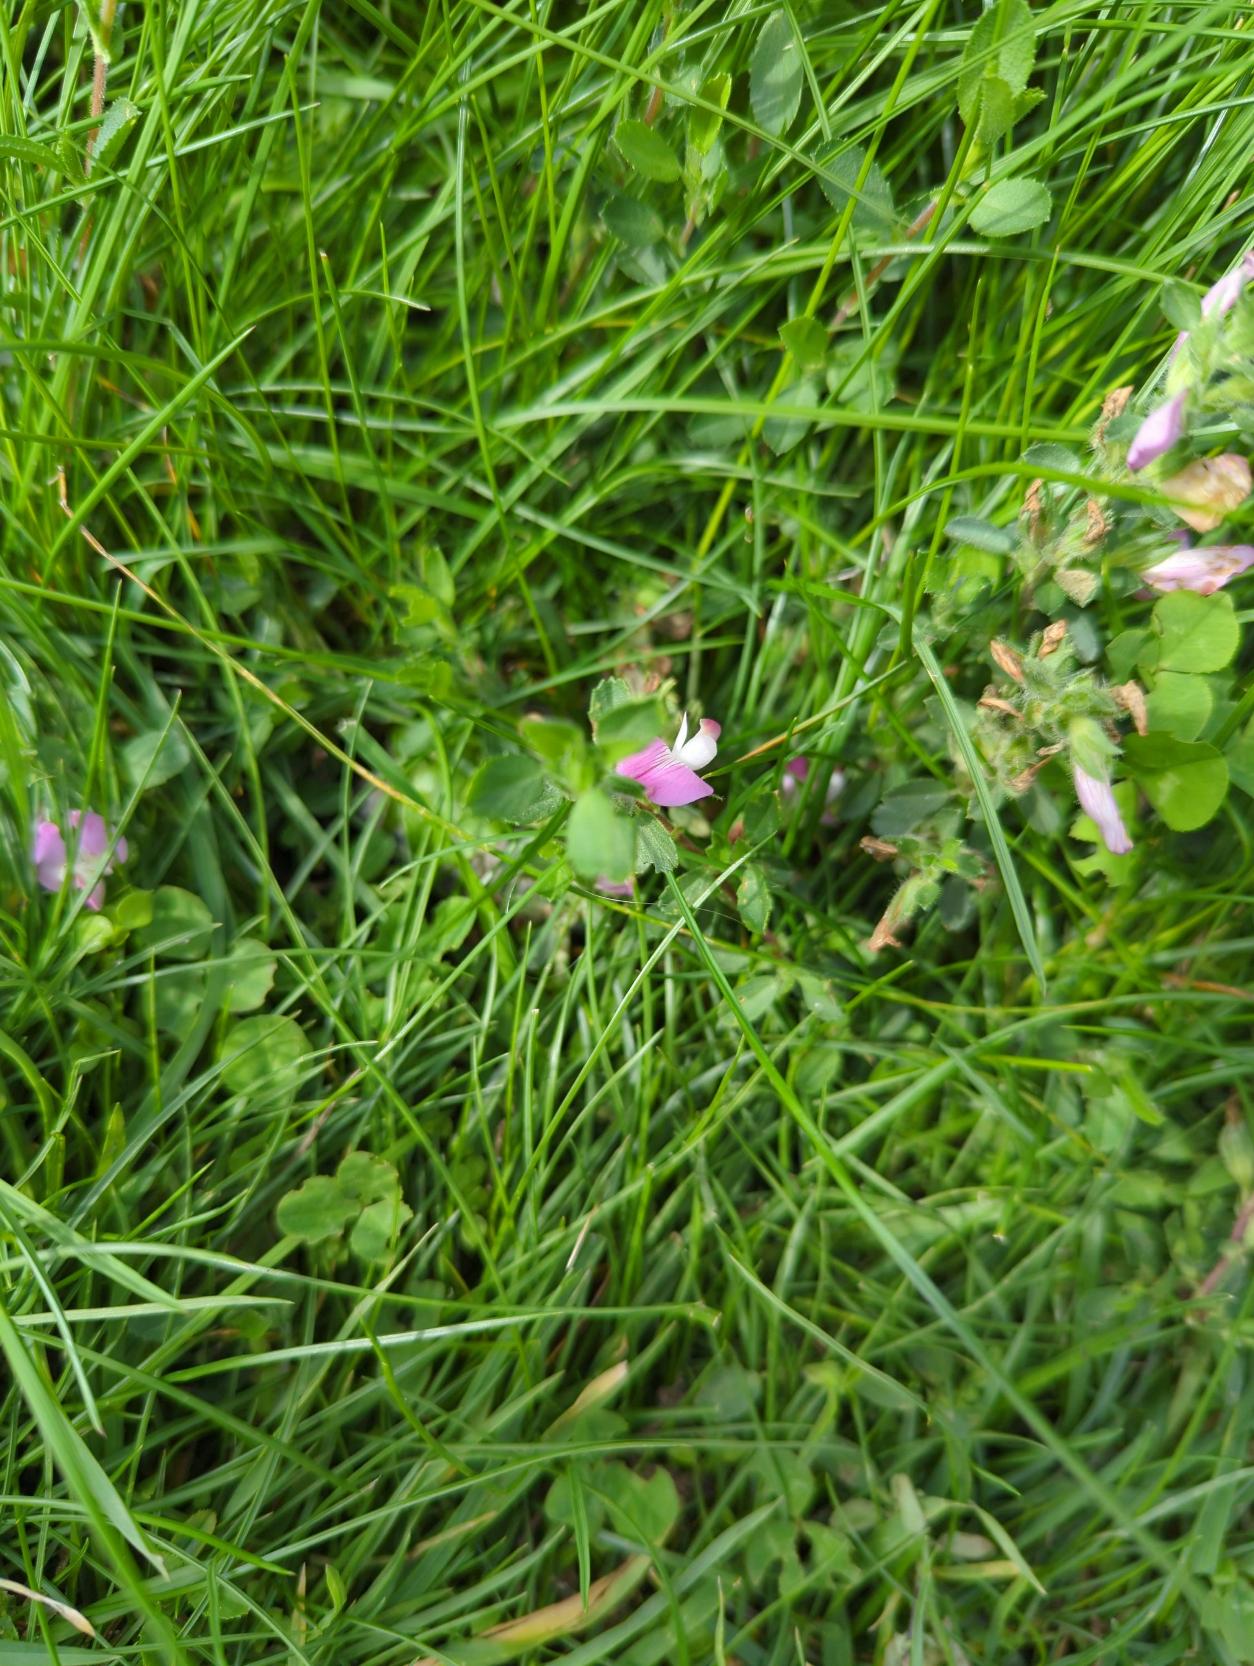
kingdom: Plantae
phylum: Tracheophyta
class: Magnoliopsida
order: Fabales
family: Fabaceae
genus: Ononis
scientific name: Ononis spinosa
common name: Mark-krageklo
